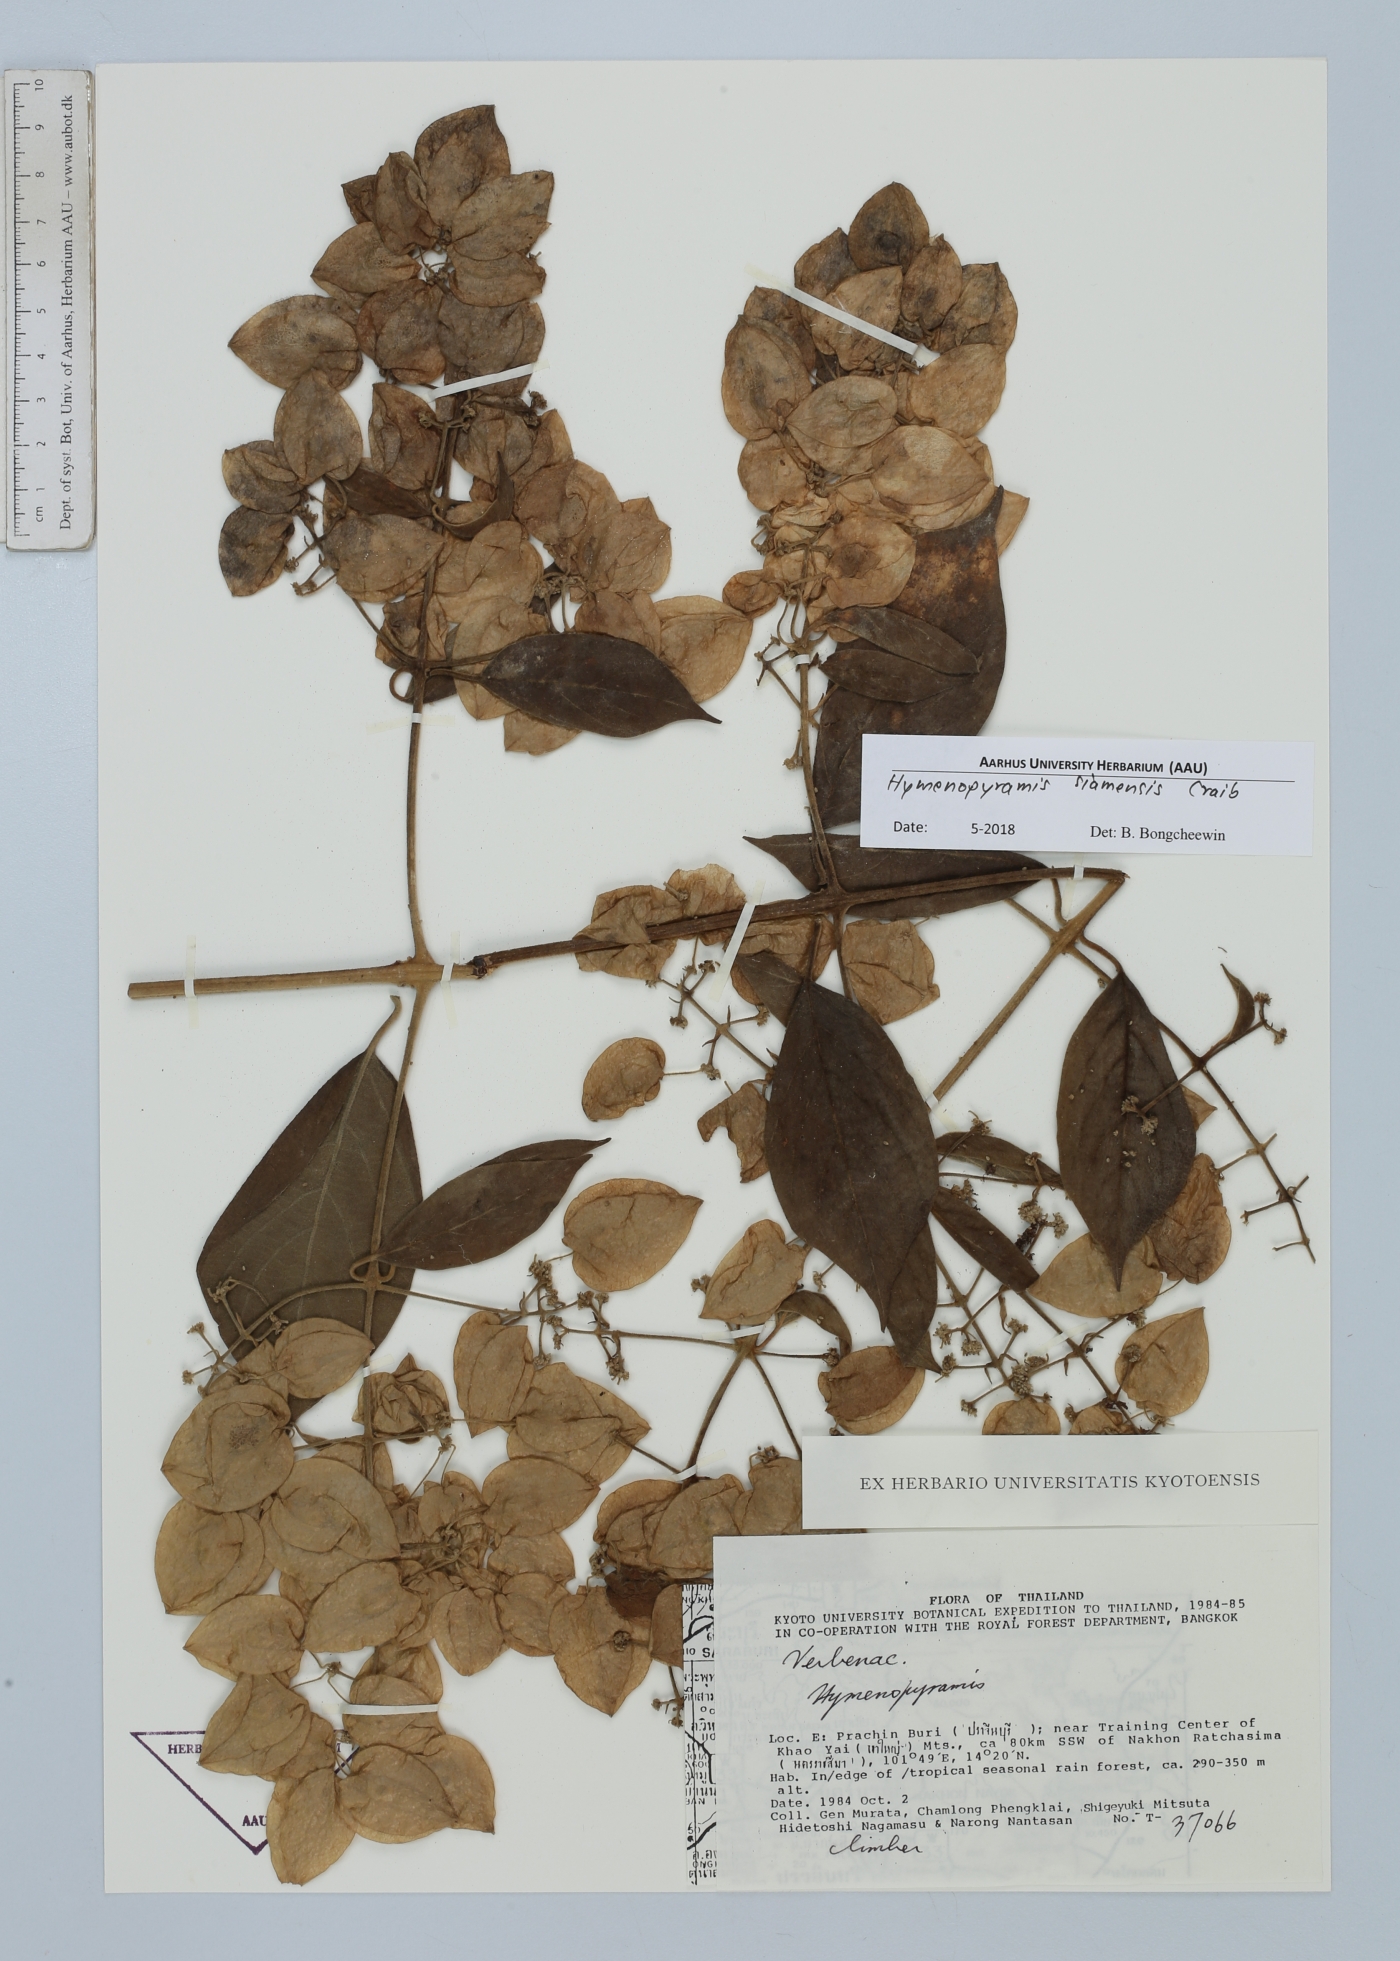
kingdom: Plantae
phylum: Tracheophyta
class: Magnoliopsida
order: Lamiales
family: Lamiaceae
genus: Hymenopyramis
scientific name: Hymenopyramis siamensis
